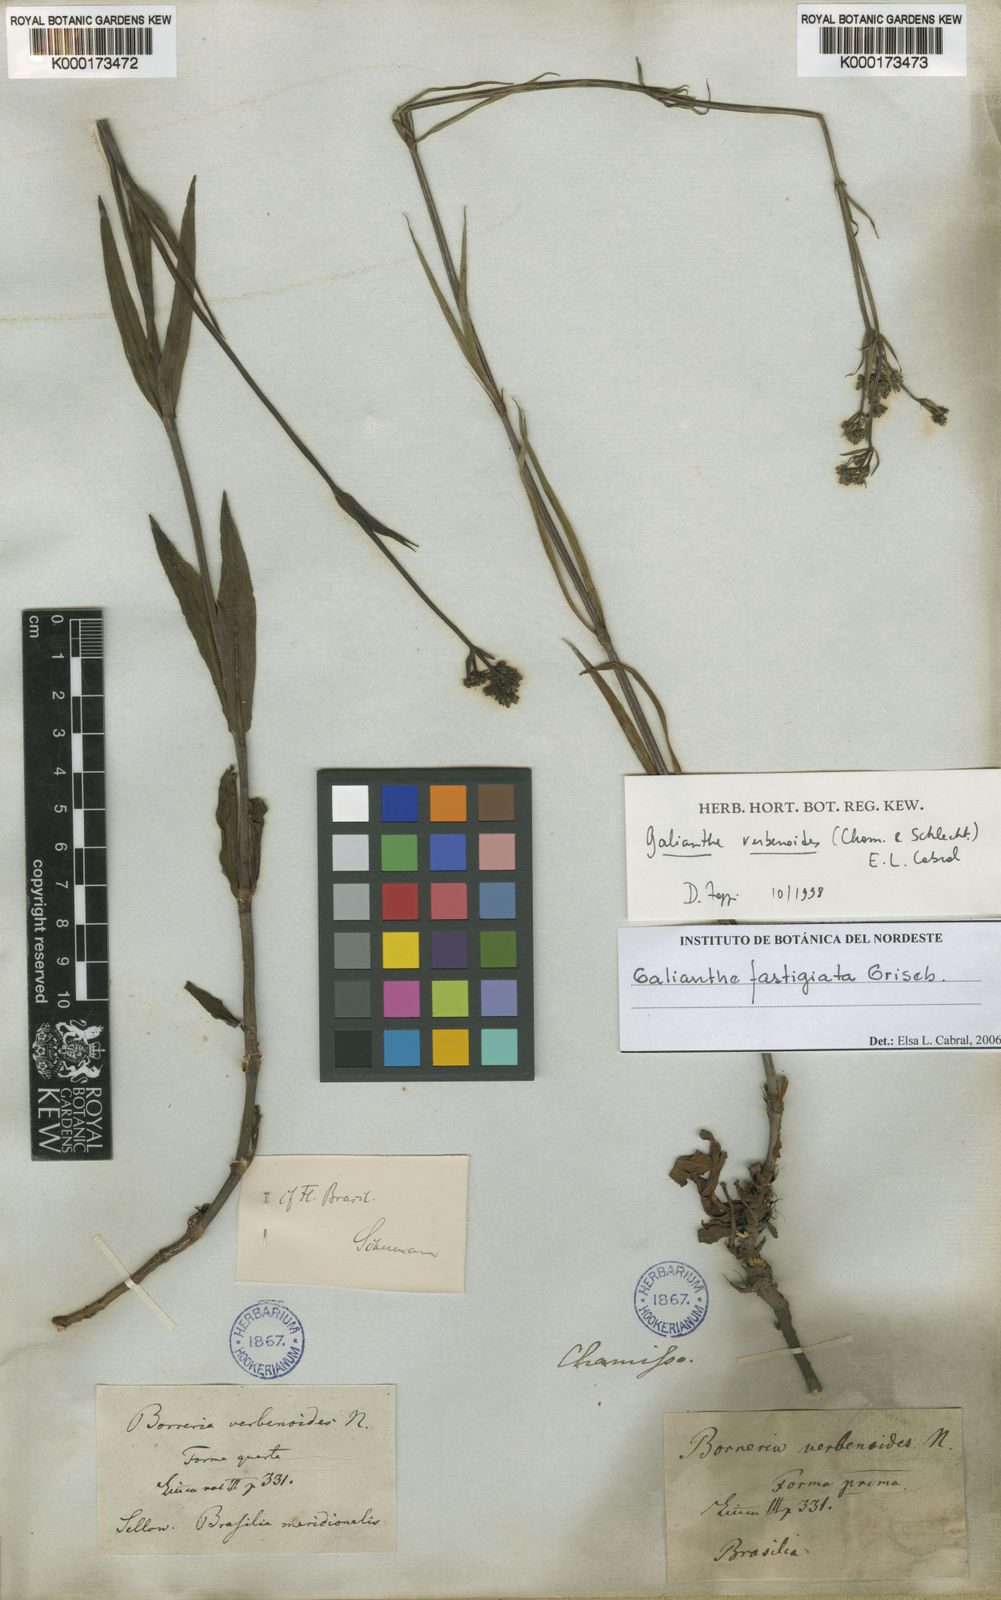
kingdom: Plantae
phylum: Tracheophyta
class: Magnoliopsida
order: Gentianales
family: Rubiaceae
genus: Galianthe
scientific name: Galianthe fastigiata
